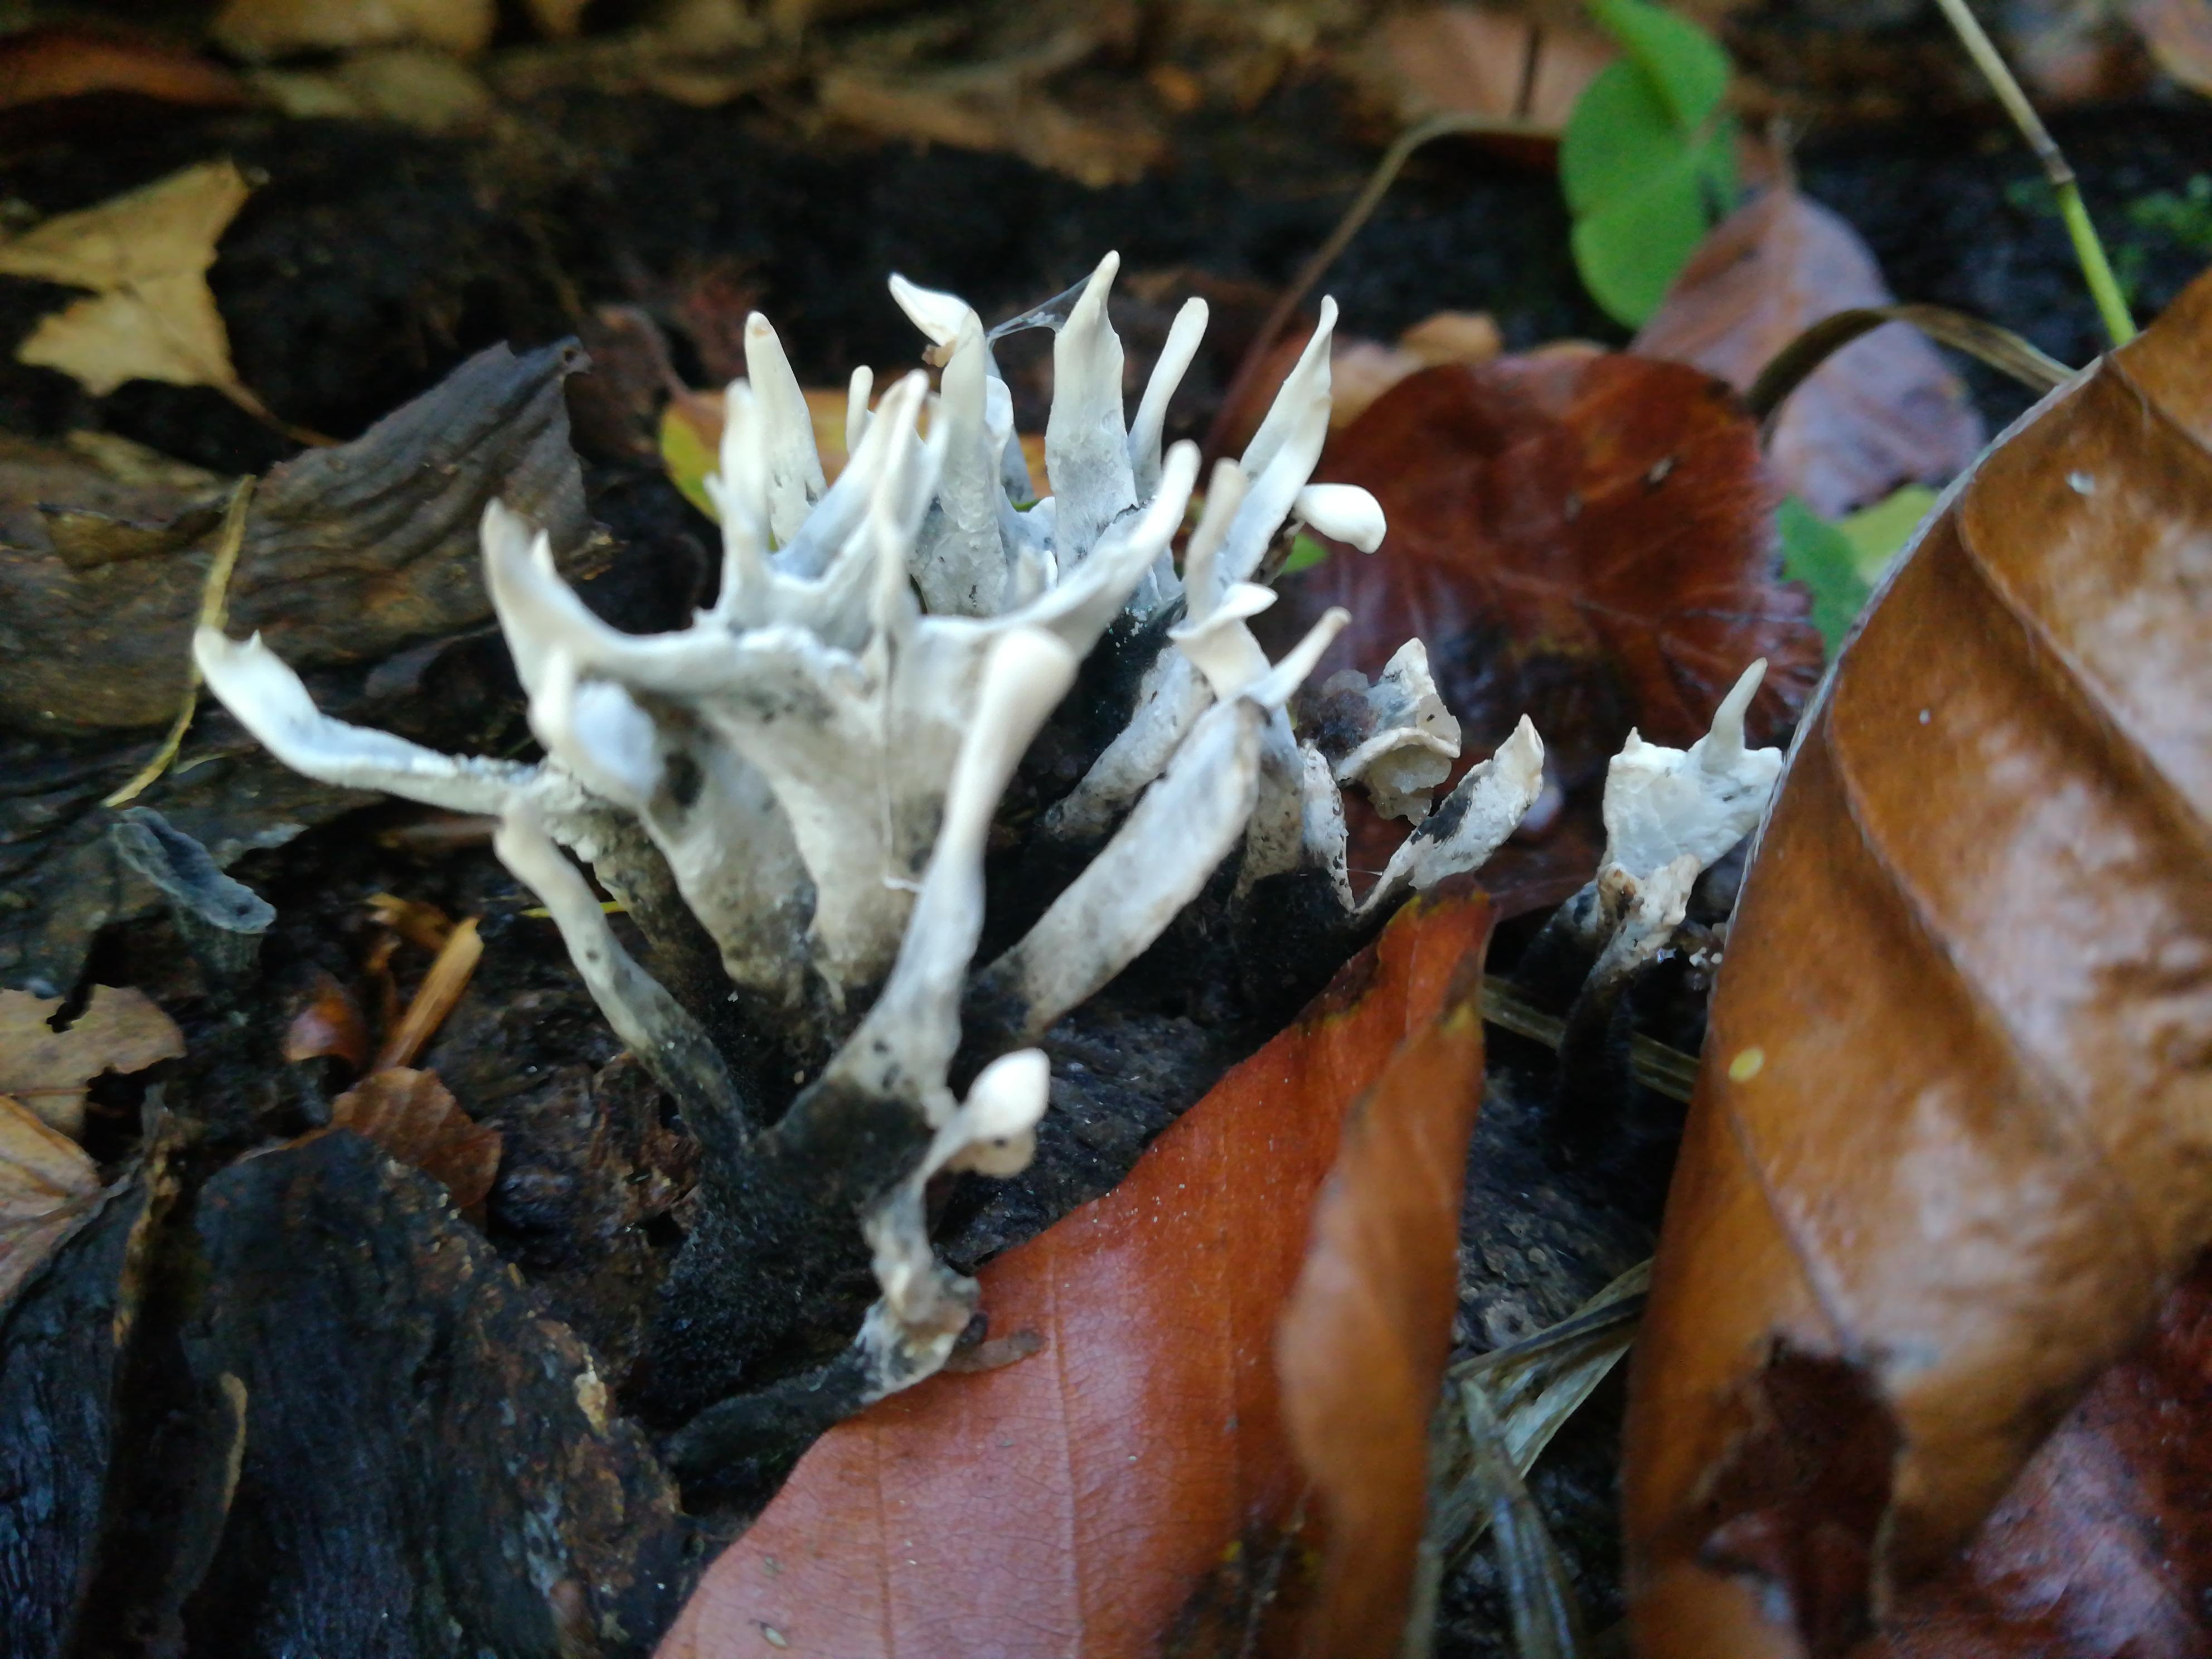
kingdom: Fungi
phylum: Ascomycota
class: Sordariomycetes
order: Xylariales
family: Xylariaceae
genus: Xylaria
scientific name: Xylaria hypoxylon
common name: grenet stødsvamp
